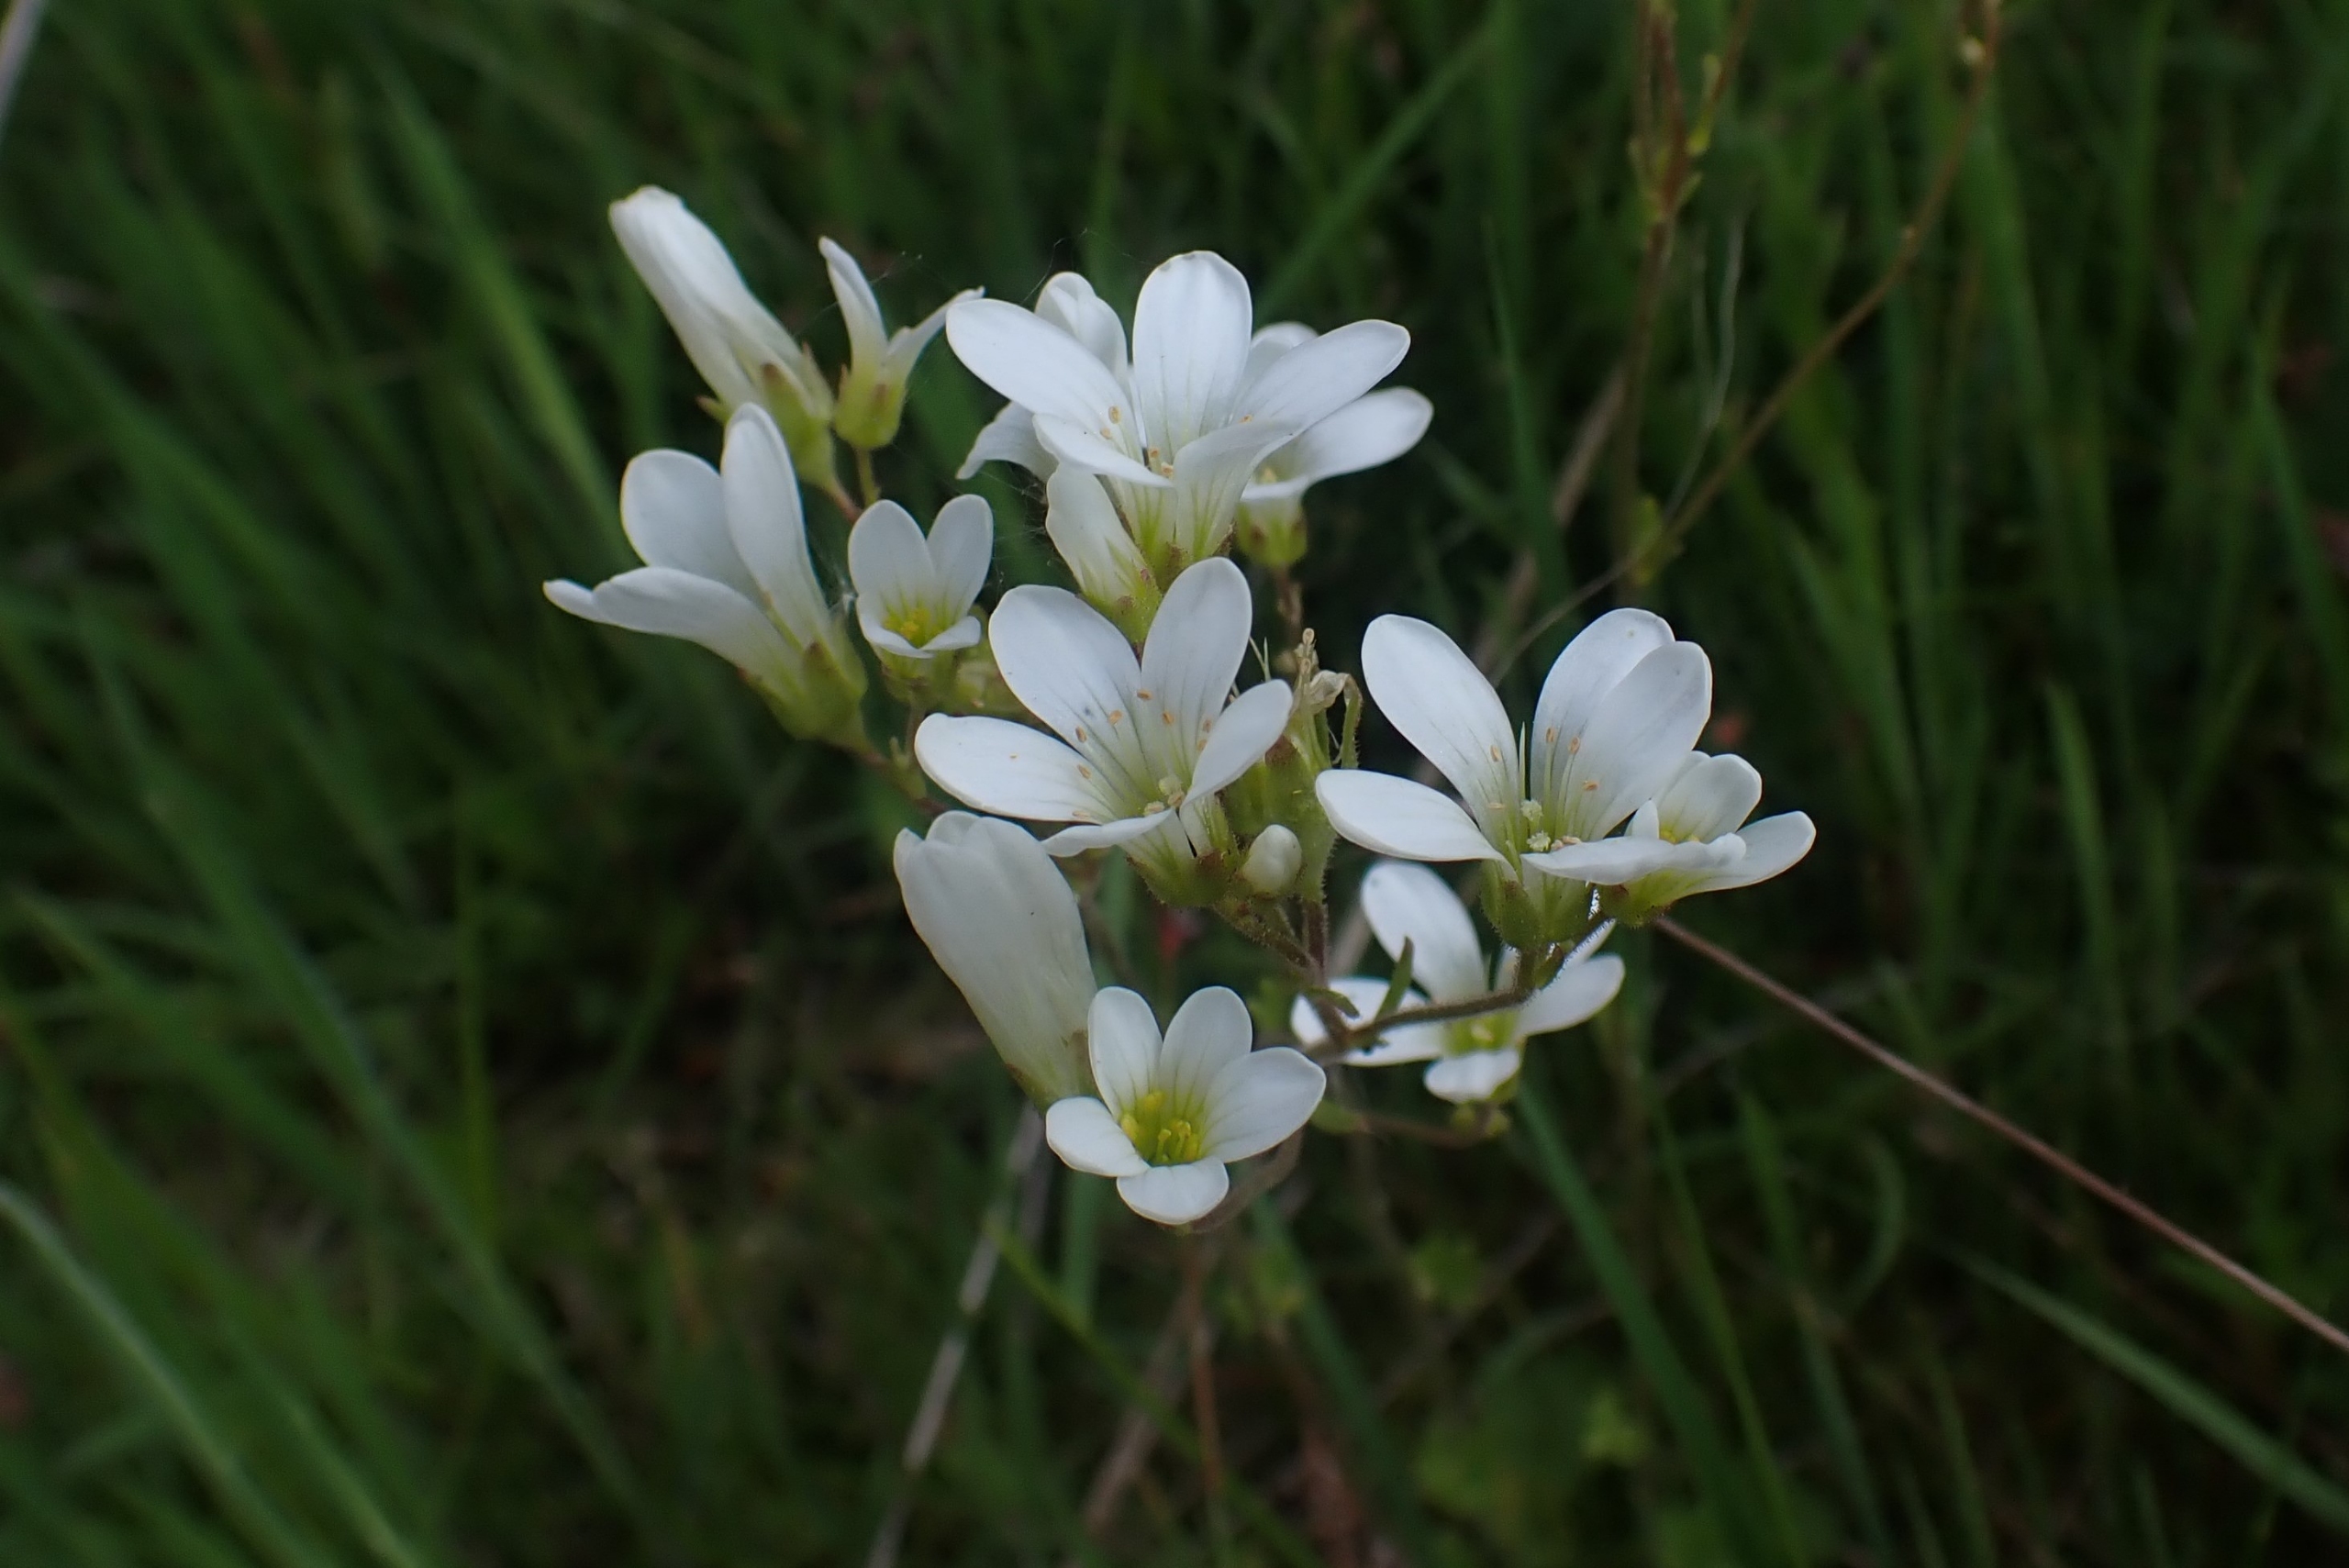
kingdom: Plantae
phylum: Tracheophyta
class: Magnoliopsida
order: Saxifragales
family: Saxifragaceae
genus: Saxifraga
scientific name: Saxifraga granulata
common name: Kornet stenbræk
